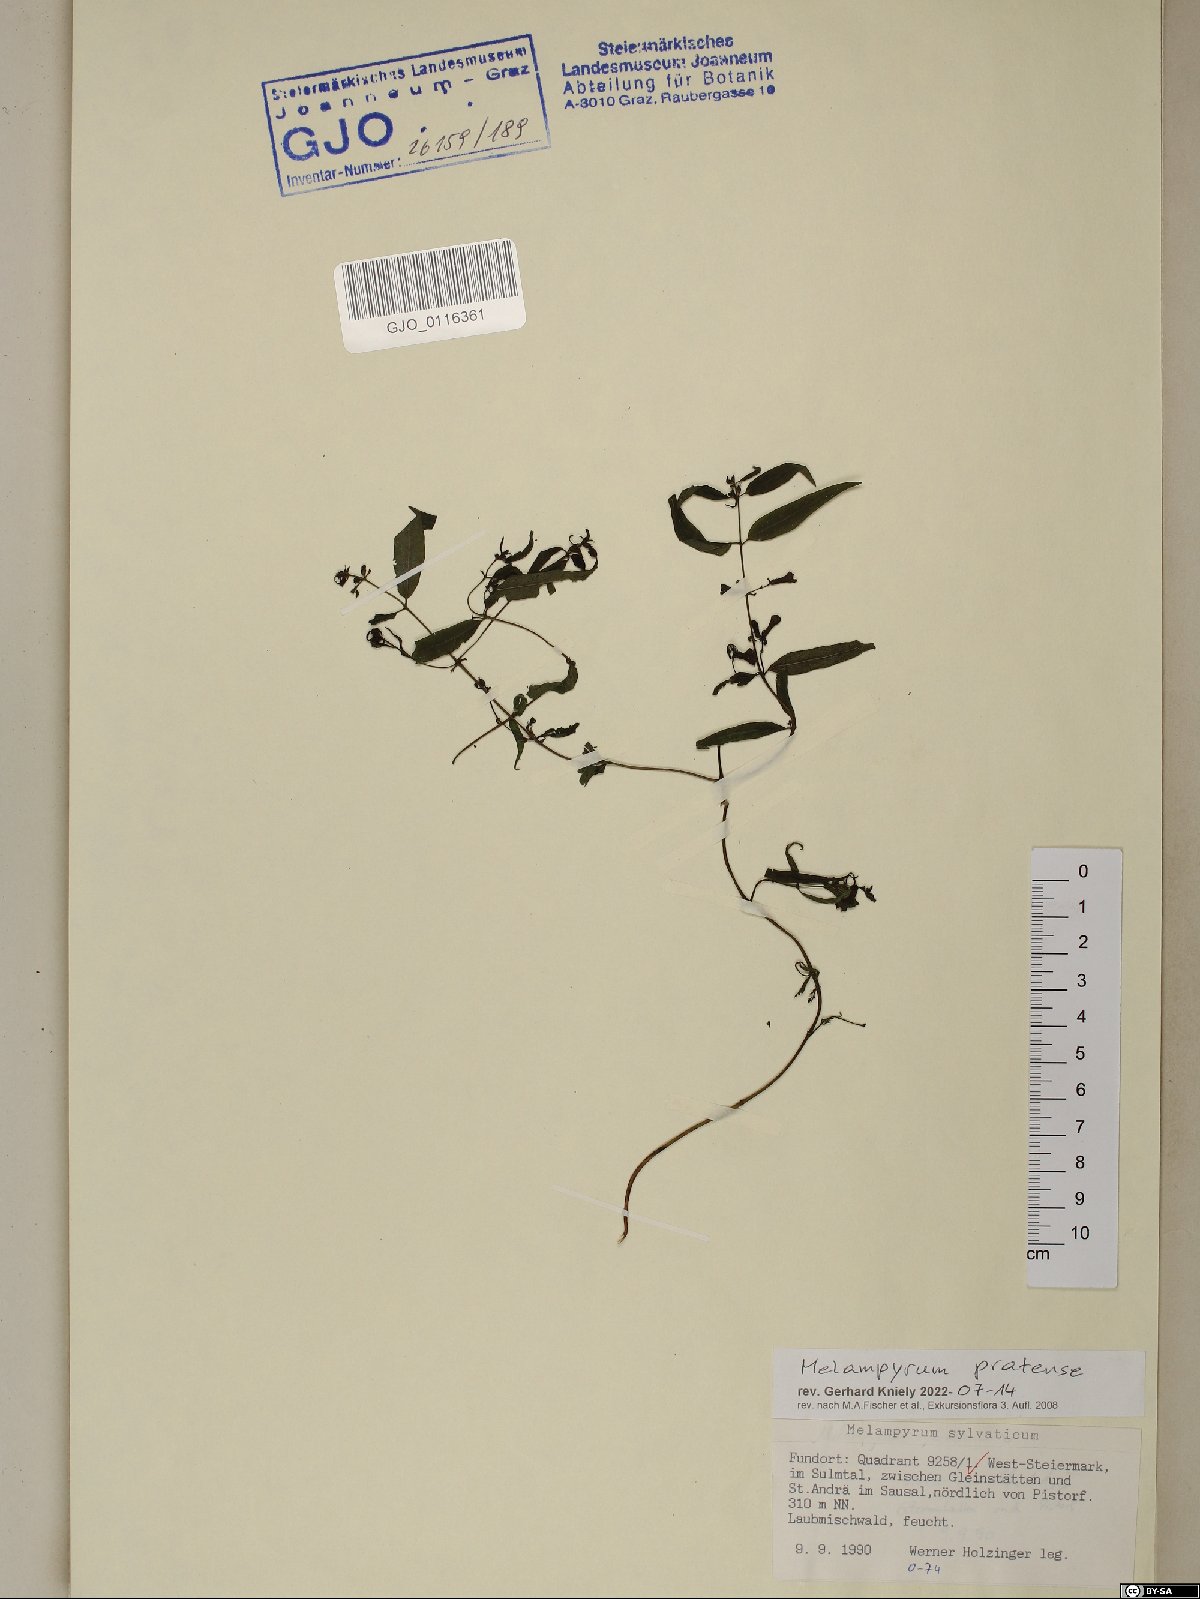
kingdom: Plantae
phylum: Tracheophyta
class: Magnoliopsida
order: Lamiales
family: Orobanchaceae
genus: Melampyrum
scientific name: Melampyrum pratense
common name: Common cow-wheat
